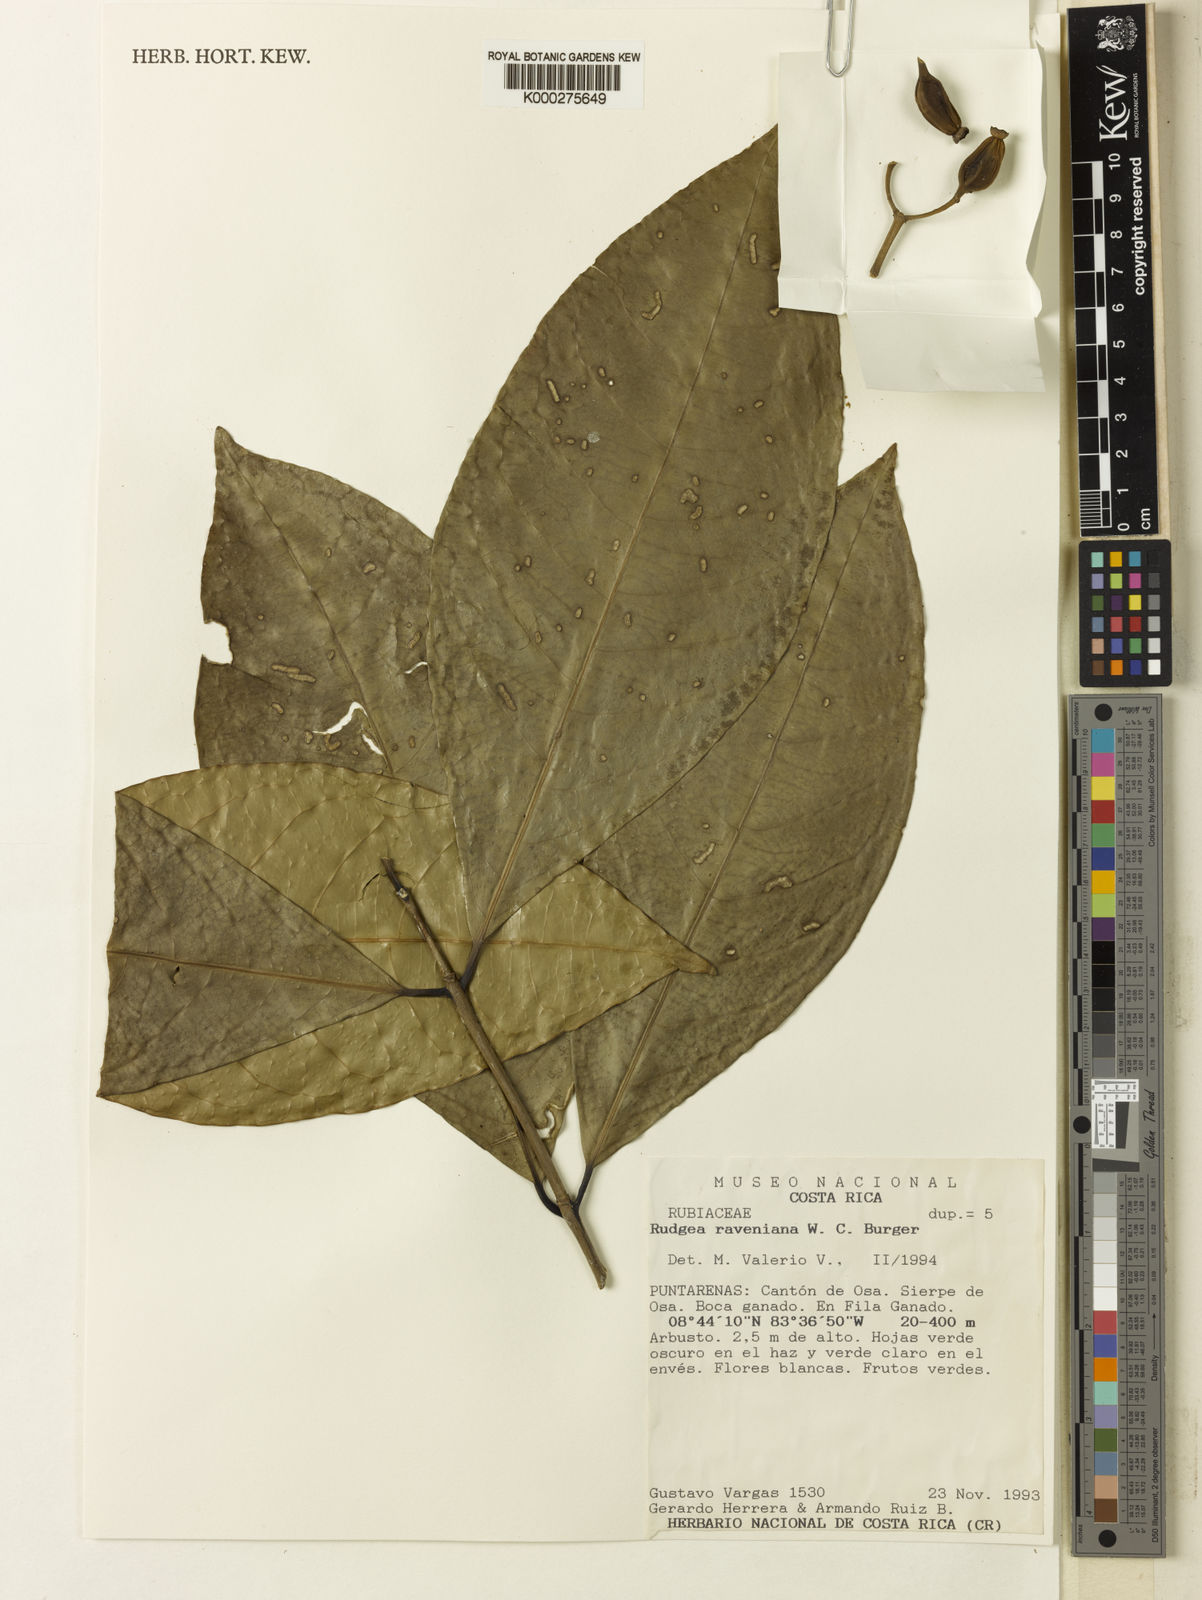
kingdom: Plantae
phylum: Tracheophyta
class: Magnoliopsida
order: Gentianales
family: Rubiaceae
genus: Rudgea
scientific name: Rudgea raveniana
